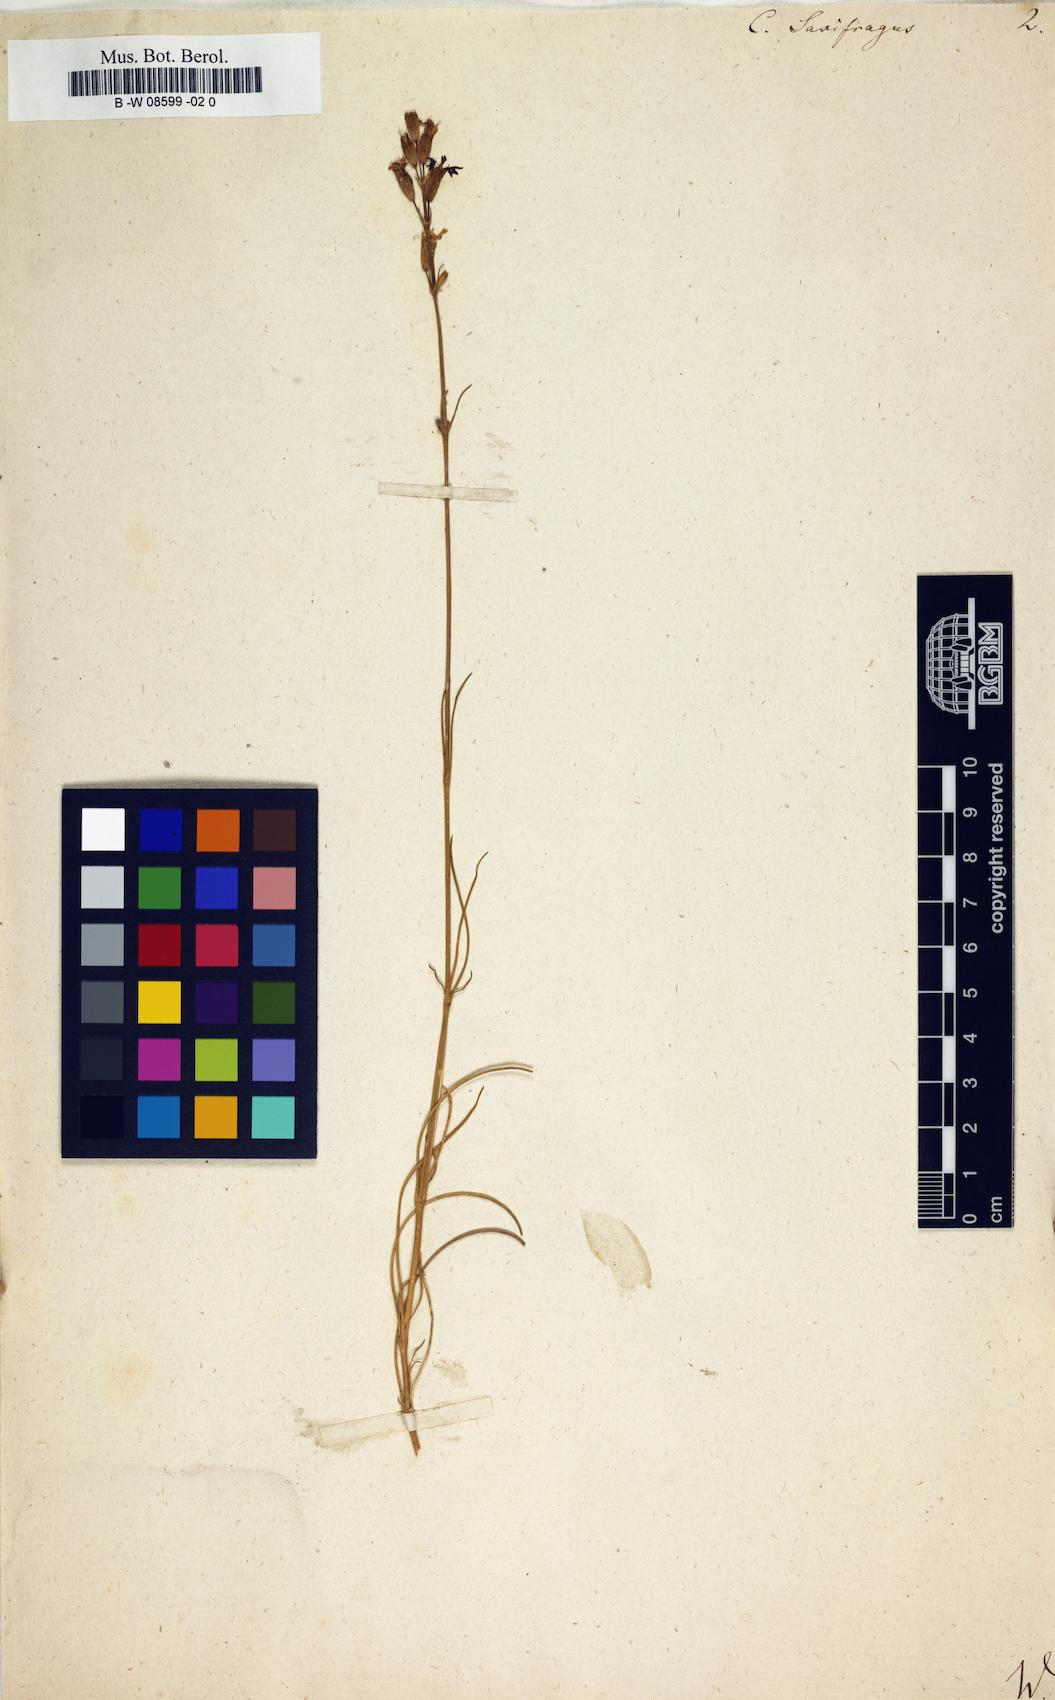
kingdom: Plantae
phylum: Tracheophyta
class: Magnoliopsida
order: Caryophyllales
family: Caryophyllaceae
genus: Silene
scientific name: Silene
